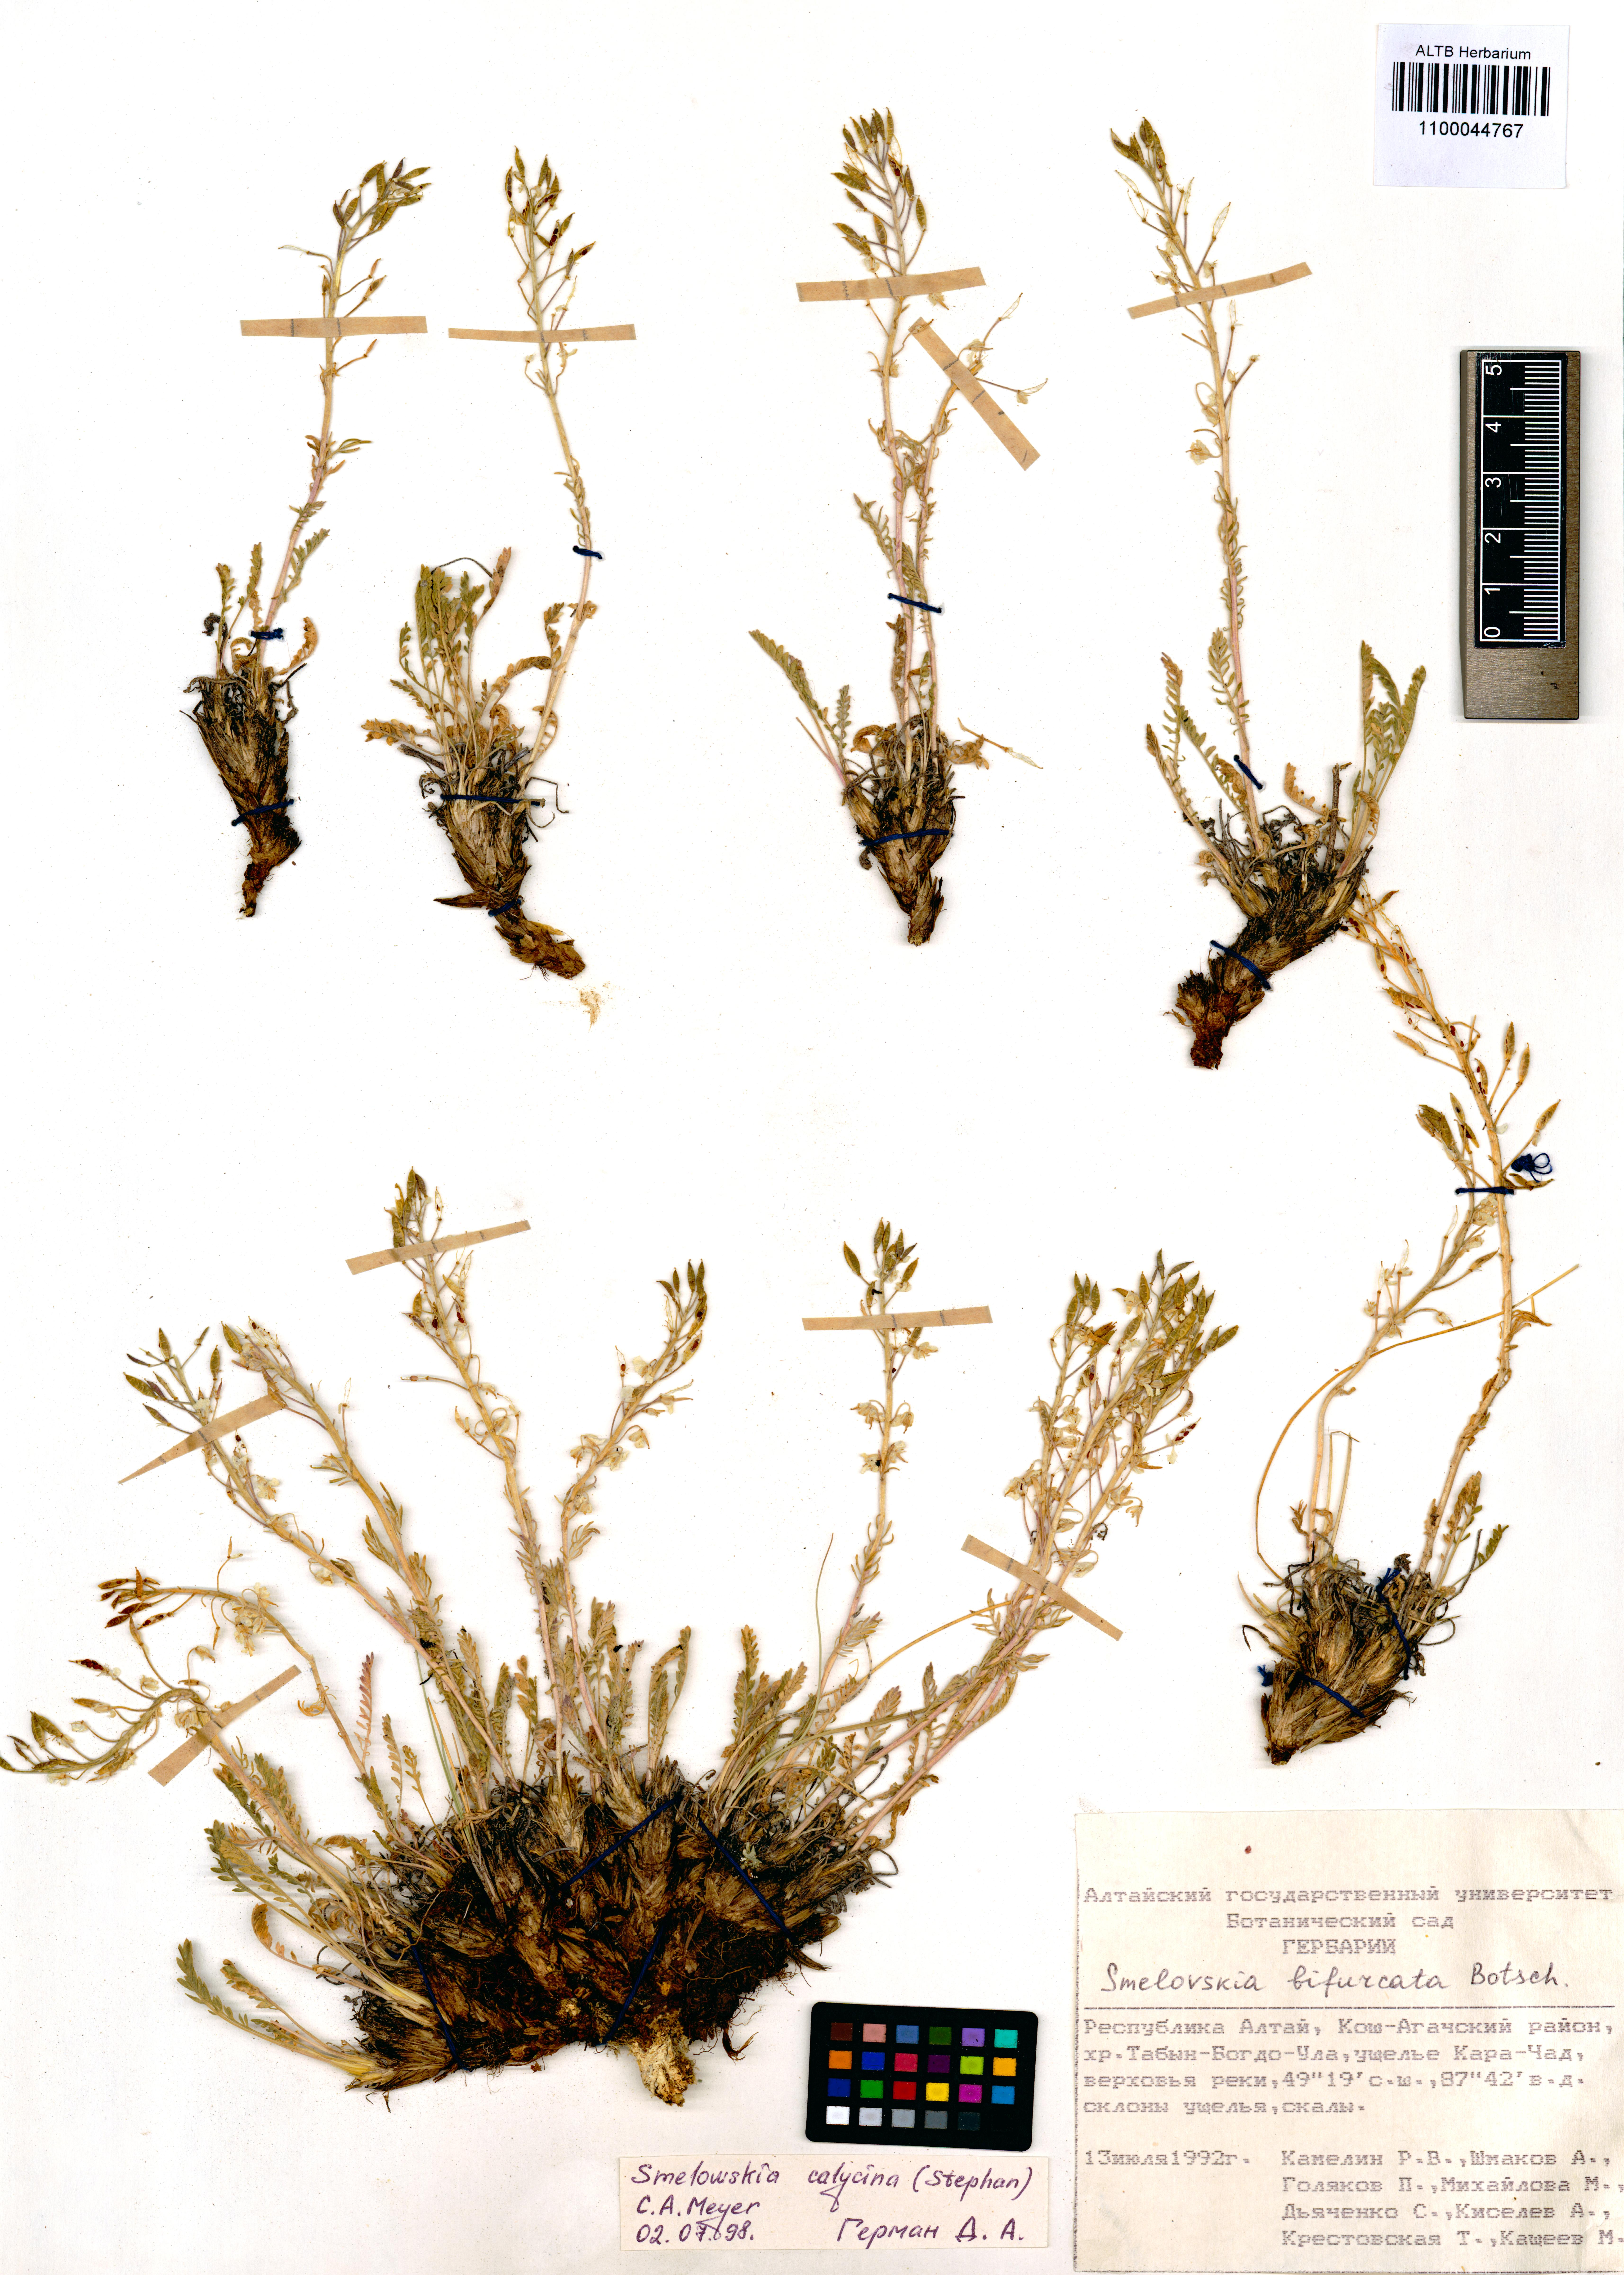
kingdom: Plantae
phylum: Tracheophyta
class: Magnoliopsida
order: Brassicales
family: Brassicaceae
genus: Smelowskia
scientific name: Smelowskia calycina
